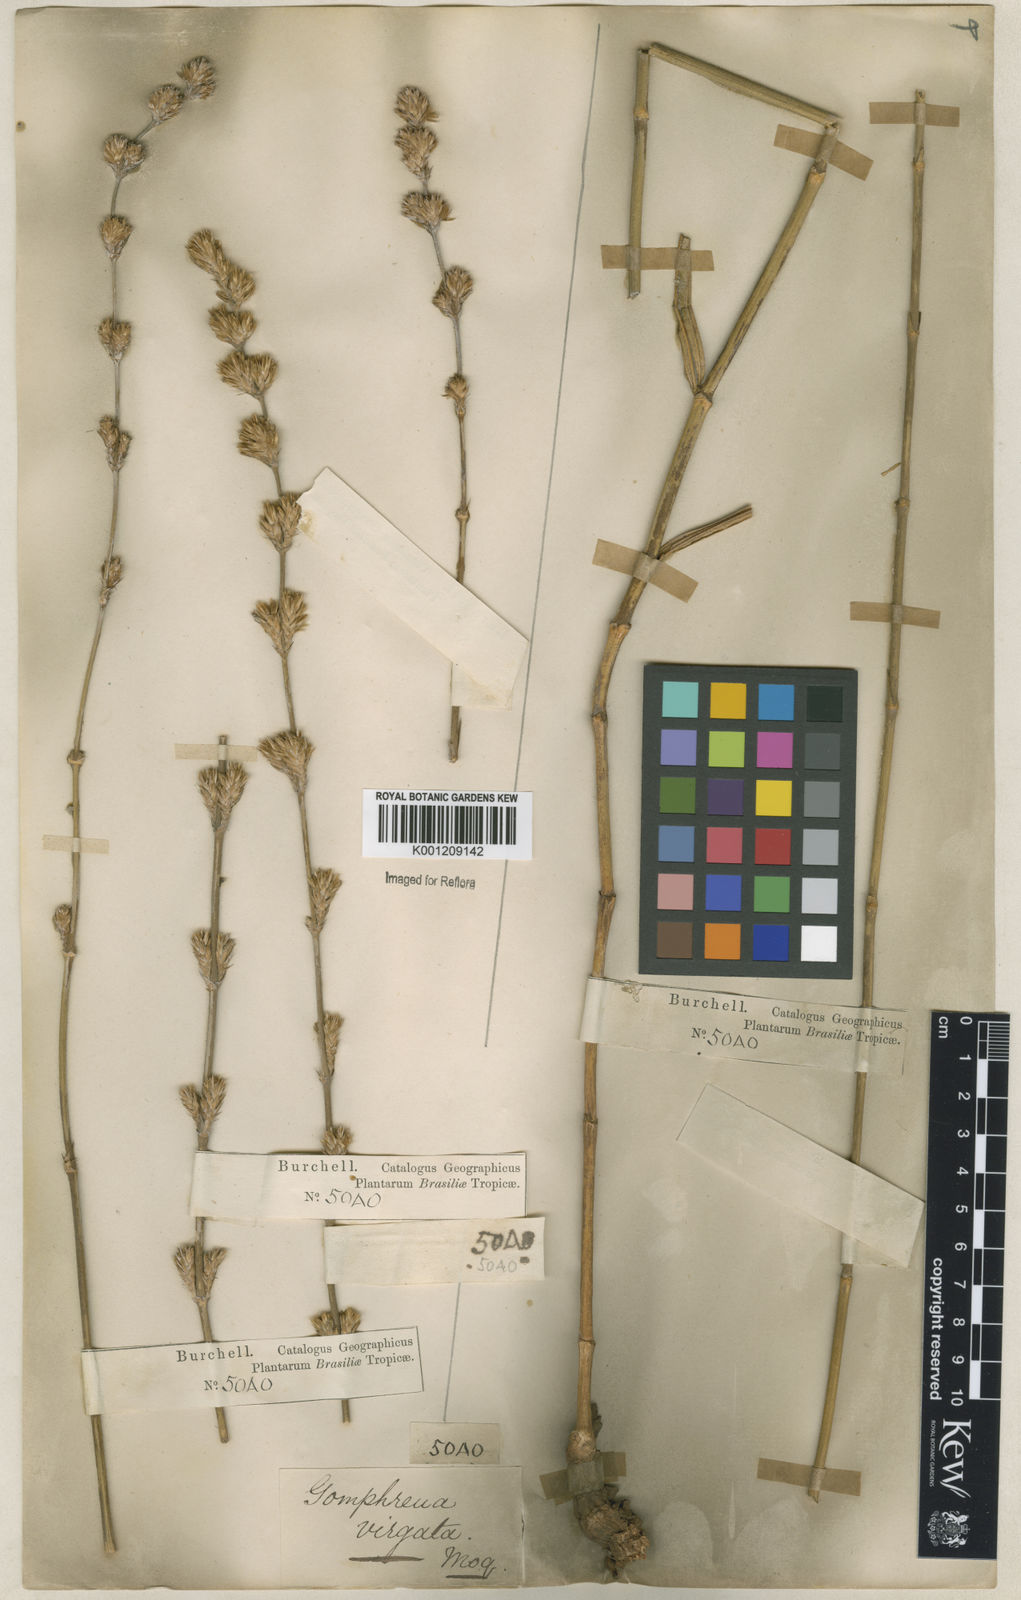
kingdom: Plantae
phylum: Tracheophyta
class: Magnoliopsida
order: Caryophyllales
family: Amaranthaceae
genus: Gomphrena
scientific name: Gomphrena virgata
